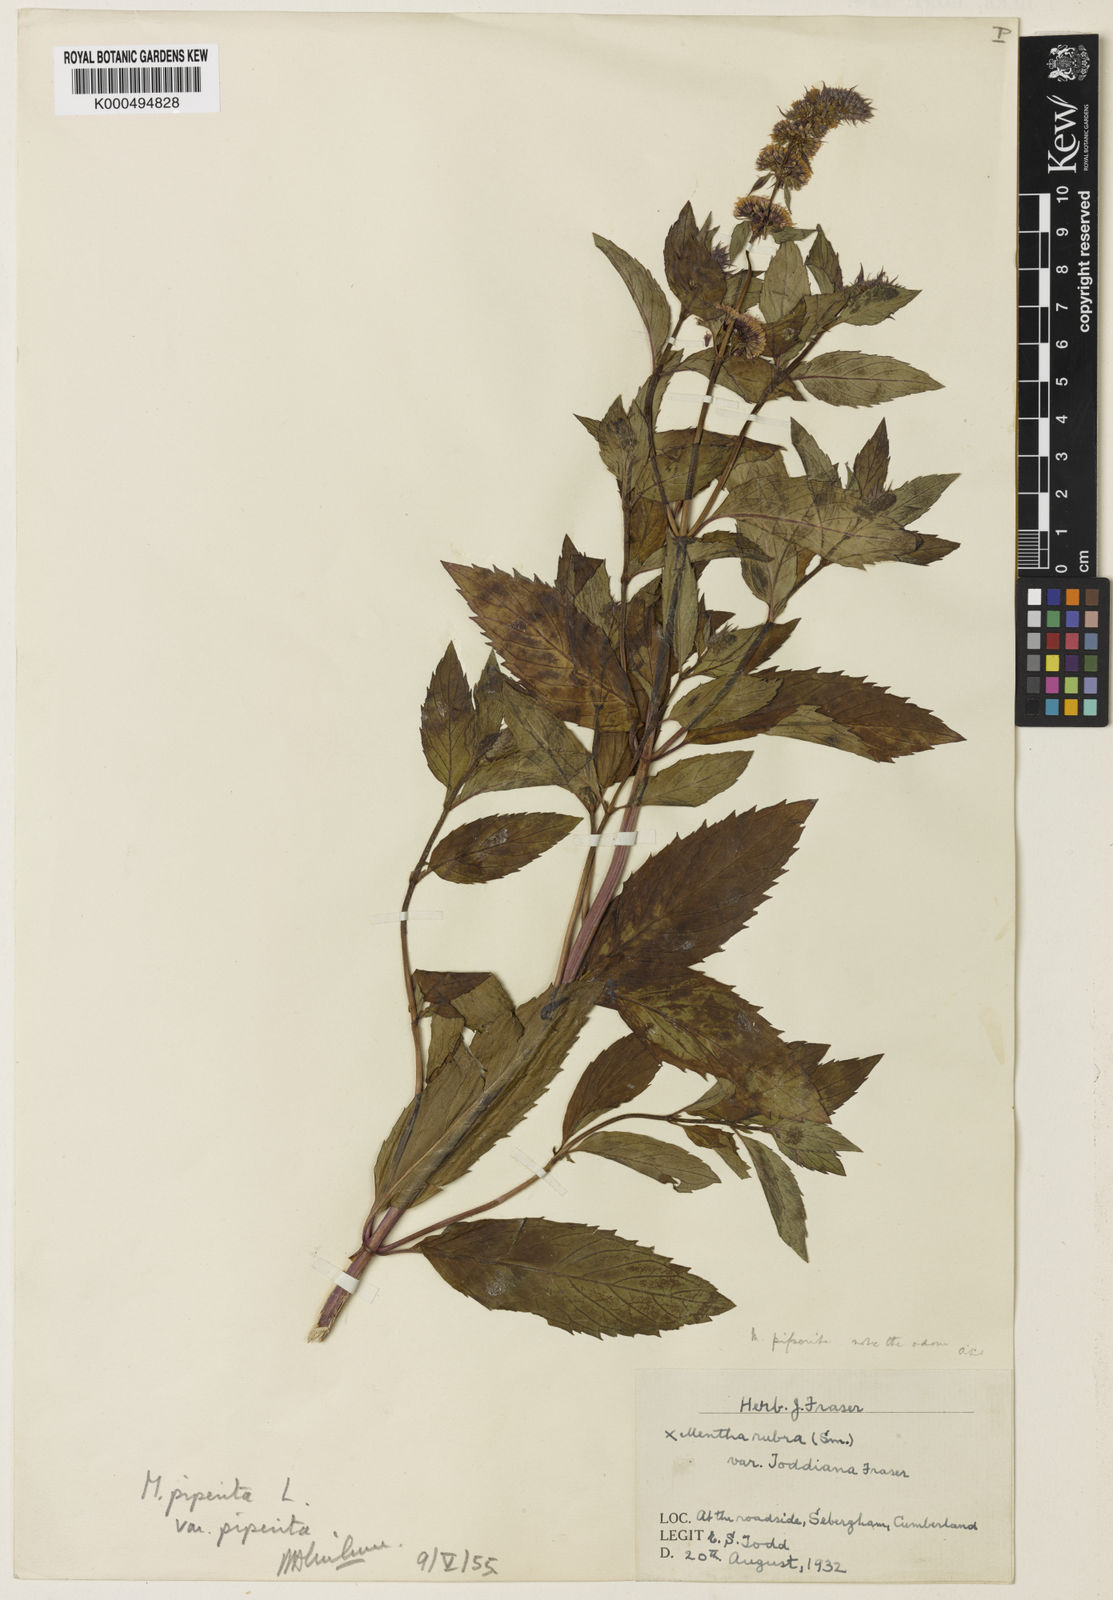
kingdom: Plantae
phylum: Tracheophyta
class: Magnoliopsida
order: Lamiales
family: Lamiaceae
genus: Mentha
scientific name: Mentha
